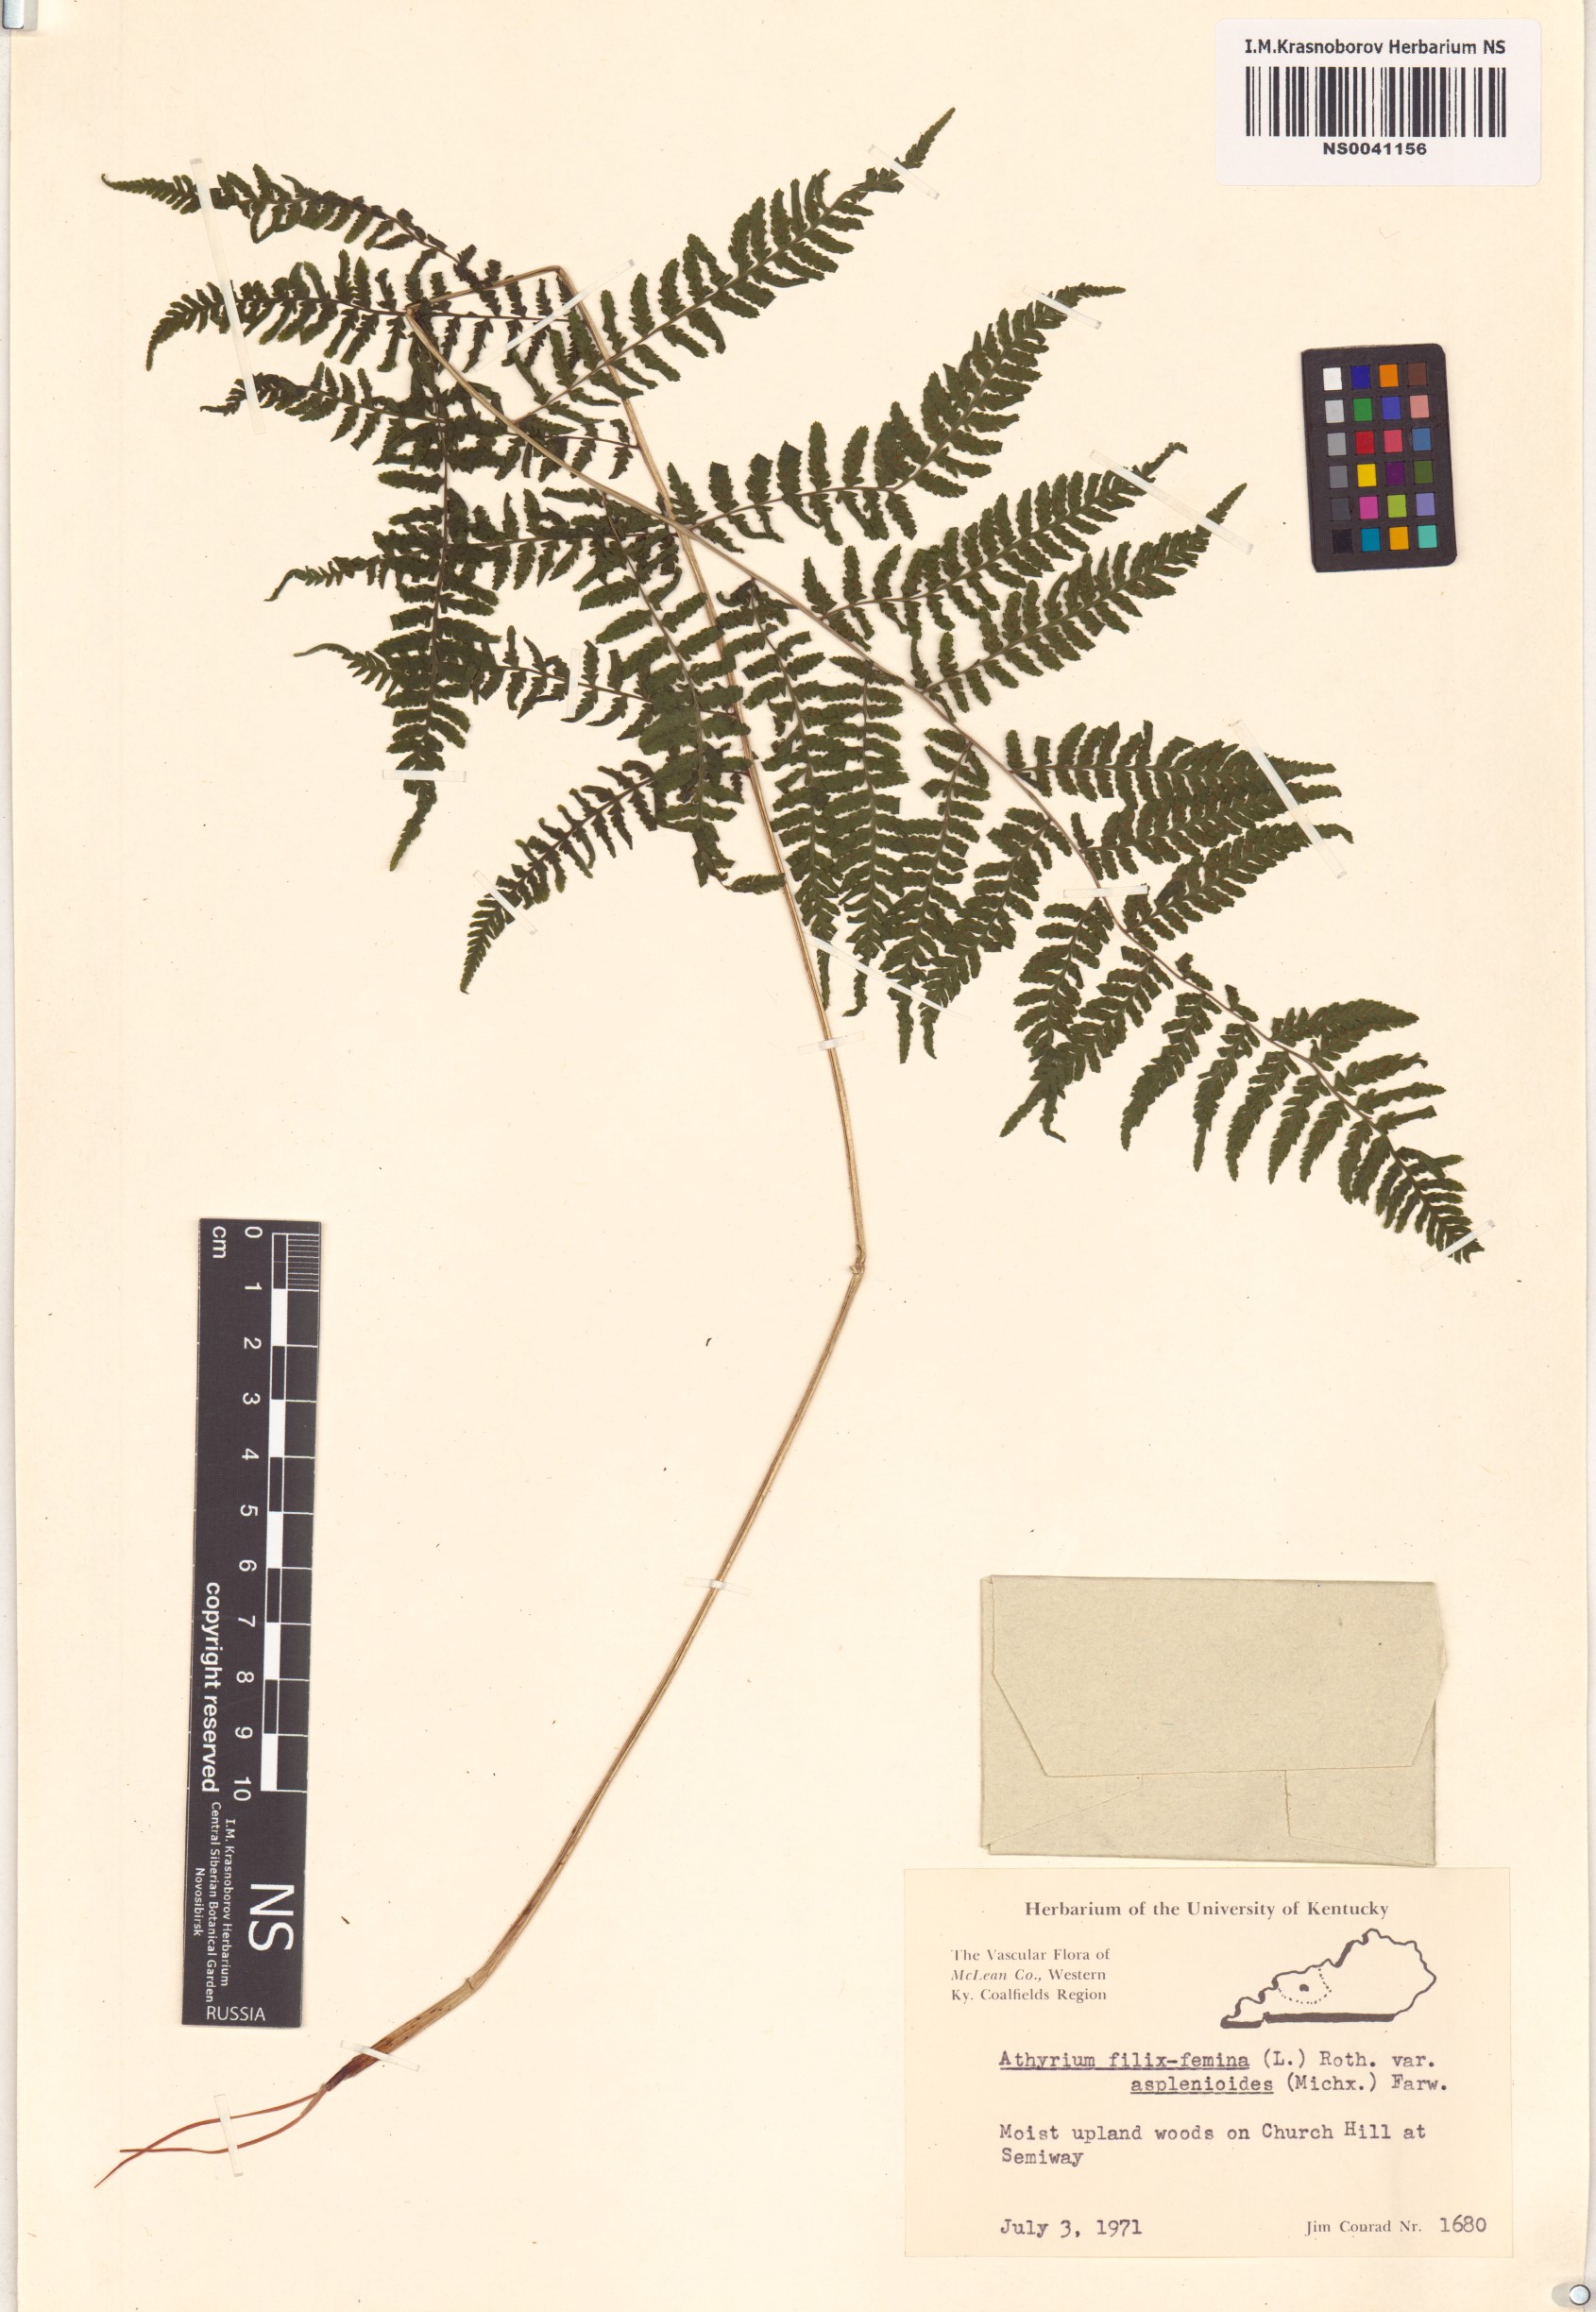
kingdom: Plantae
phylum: Tracheophyta
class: Polypodiopsida
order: Polypodiales
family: Athyriaceae
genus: Athyrium
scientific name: Athyrium asplenioides
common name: Southern lady fern
